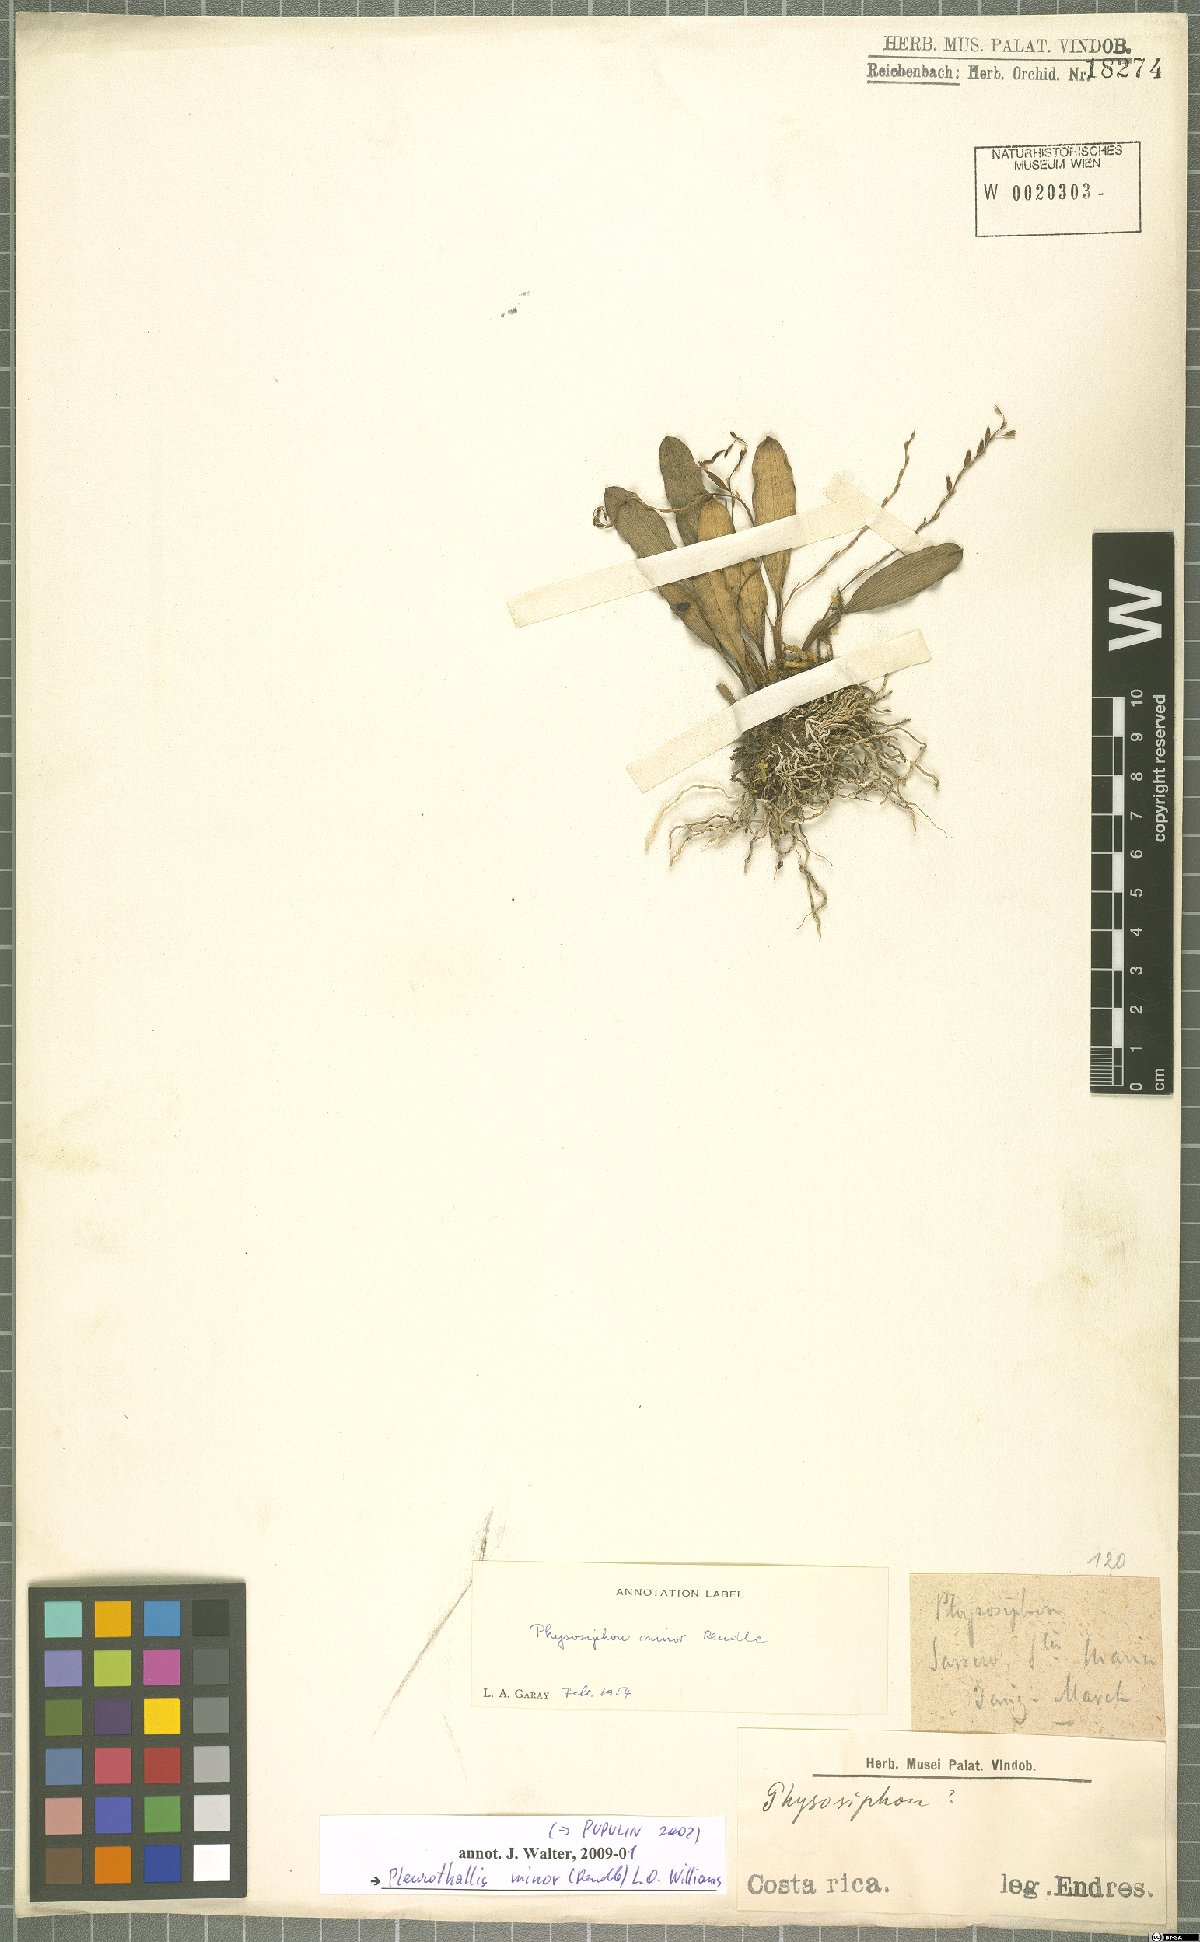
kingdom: Plantae
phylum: Tracheophyta
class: Liliopsida
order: Asparagales
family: Orchidaceae
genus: Stelis
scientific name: Stelis punctulata
